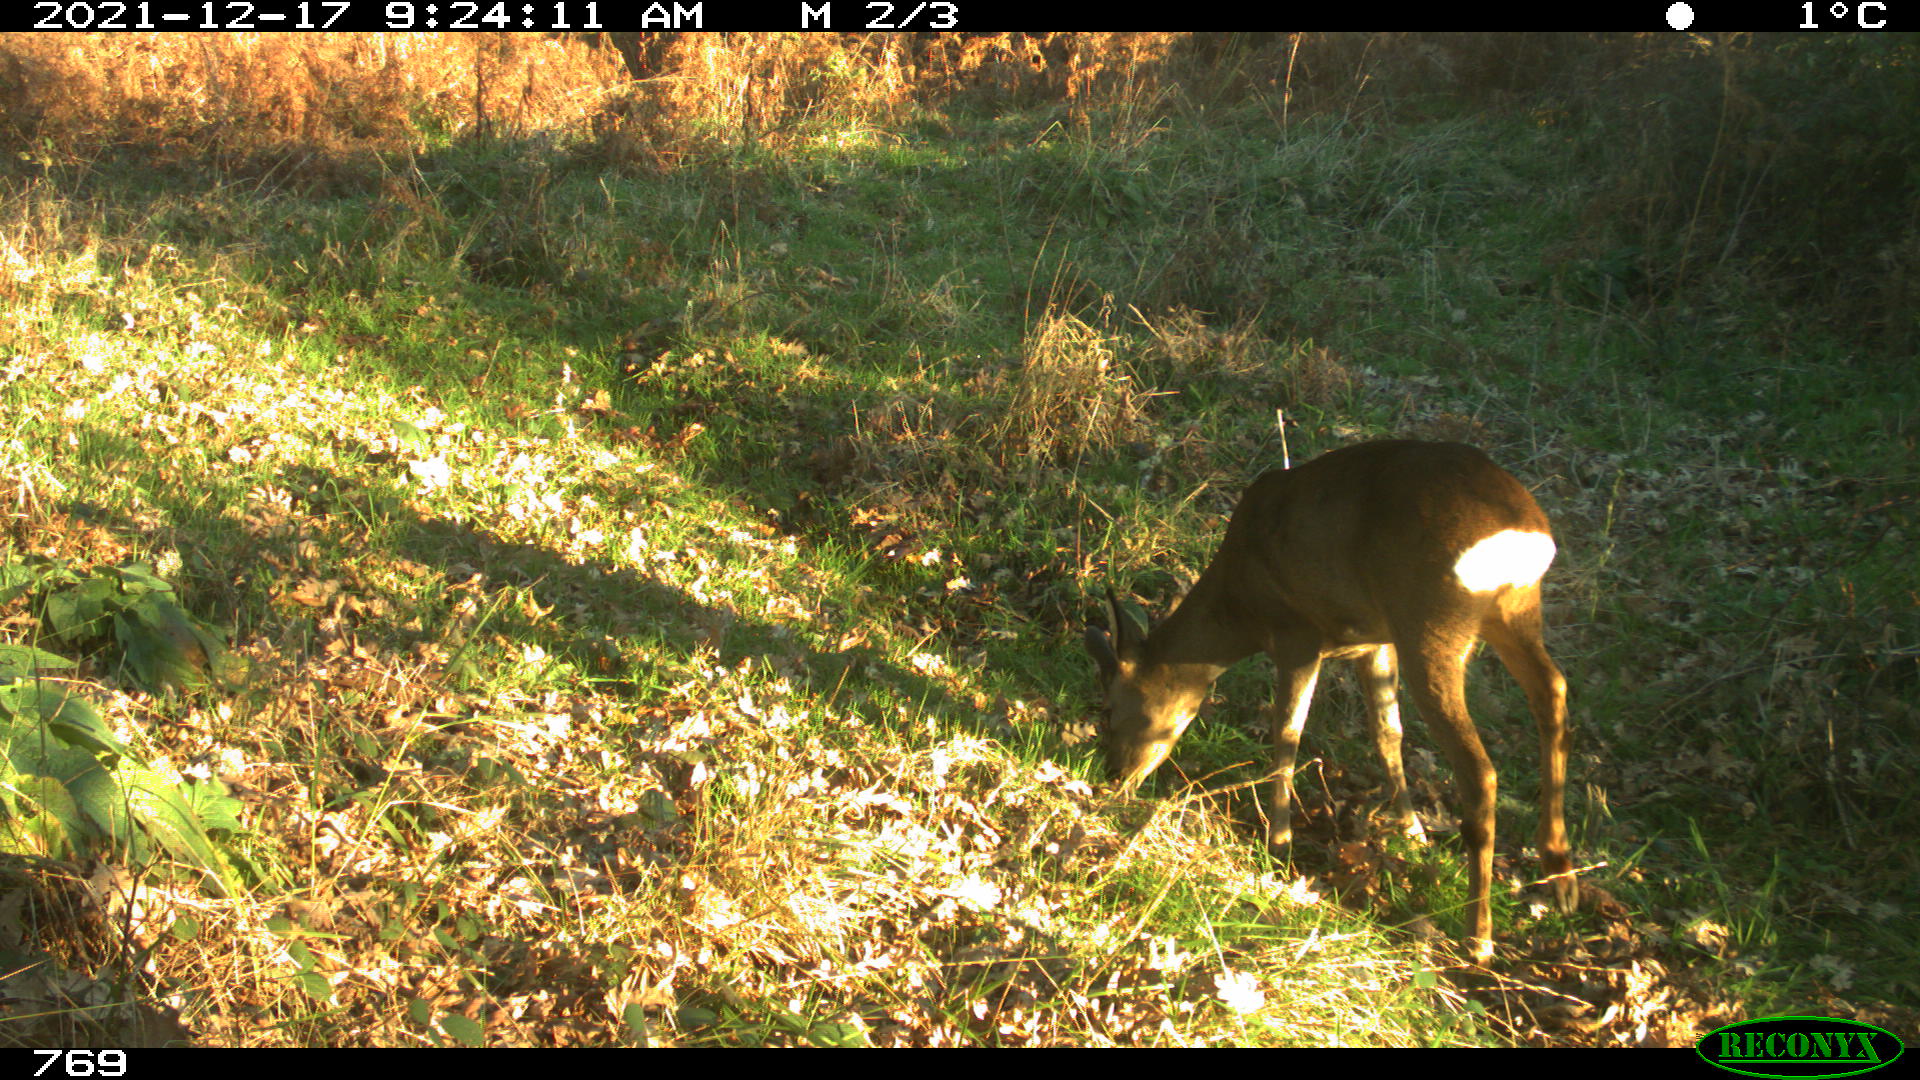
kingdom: Animalia
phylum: Chordata
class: Mammalia
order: Artiodactyla
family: Cervidae
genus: Capreolus
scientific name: Capreolus capreolus
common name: Western roe deer
